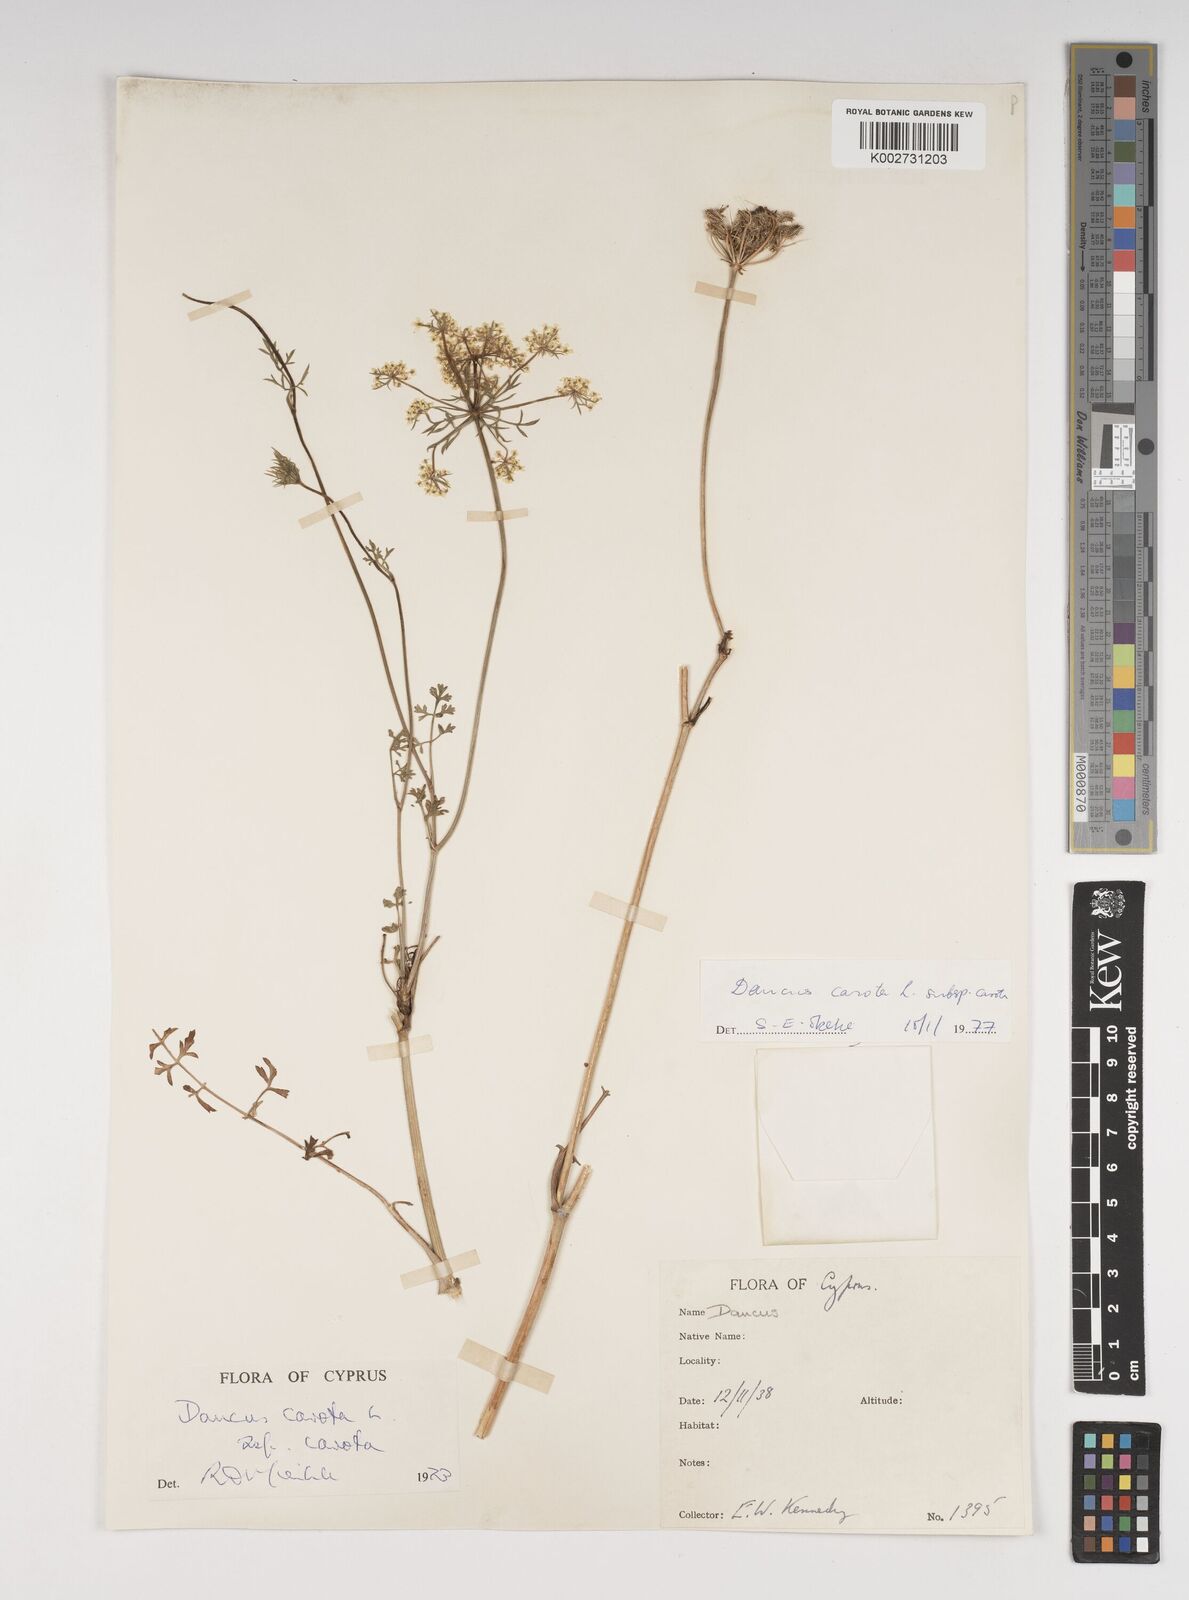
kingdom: Plantae
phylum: Tracheophyta
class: Magnoliopsida
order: Apiales
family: Apiaceae
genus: Daucus
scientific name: Daucus carota
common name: Wild carrot
